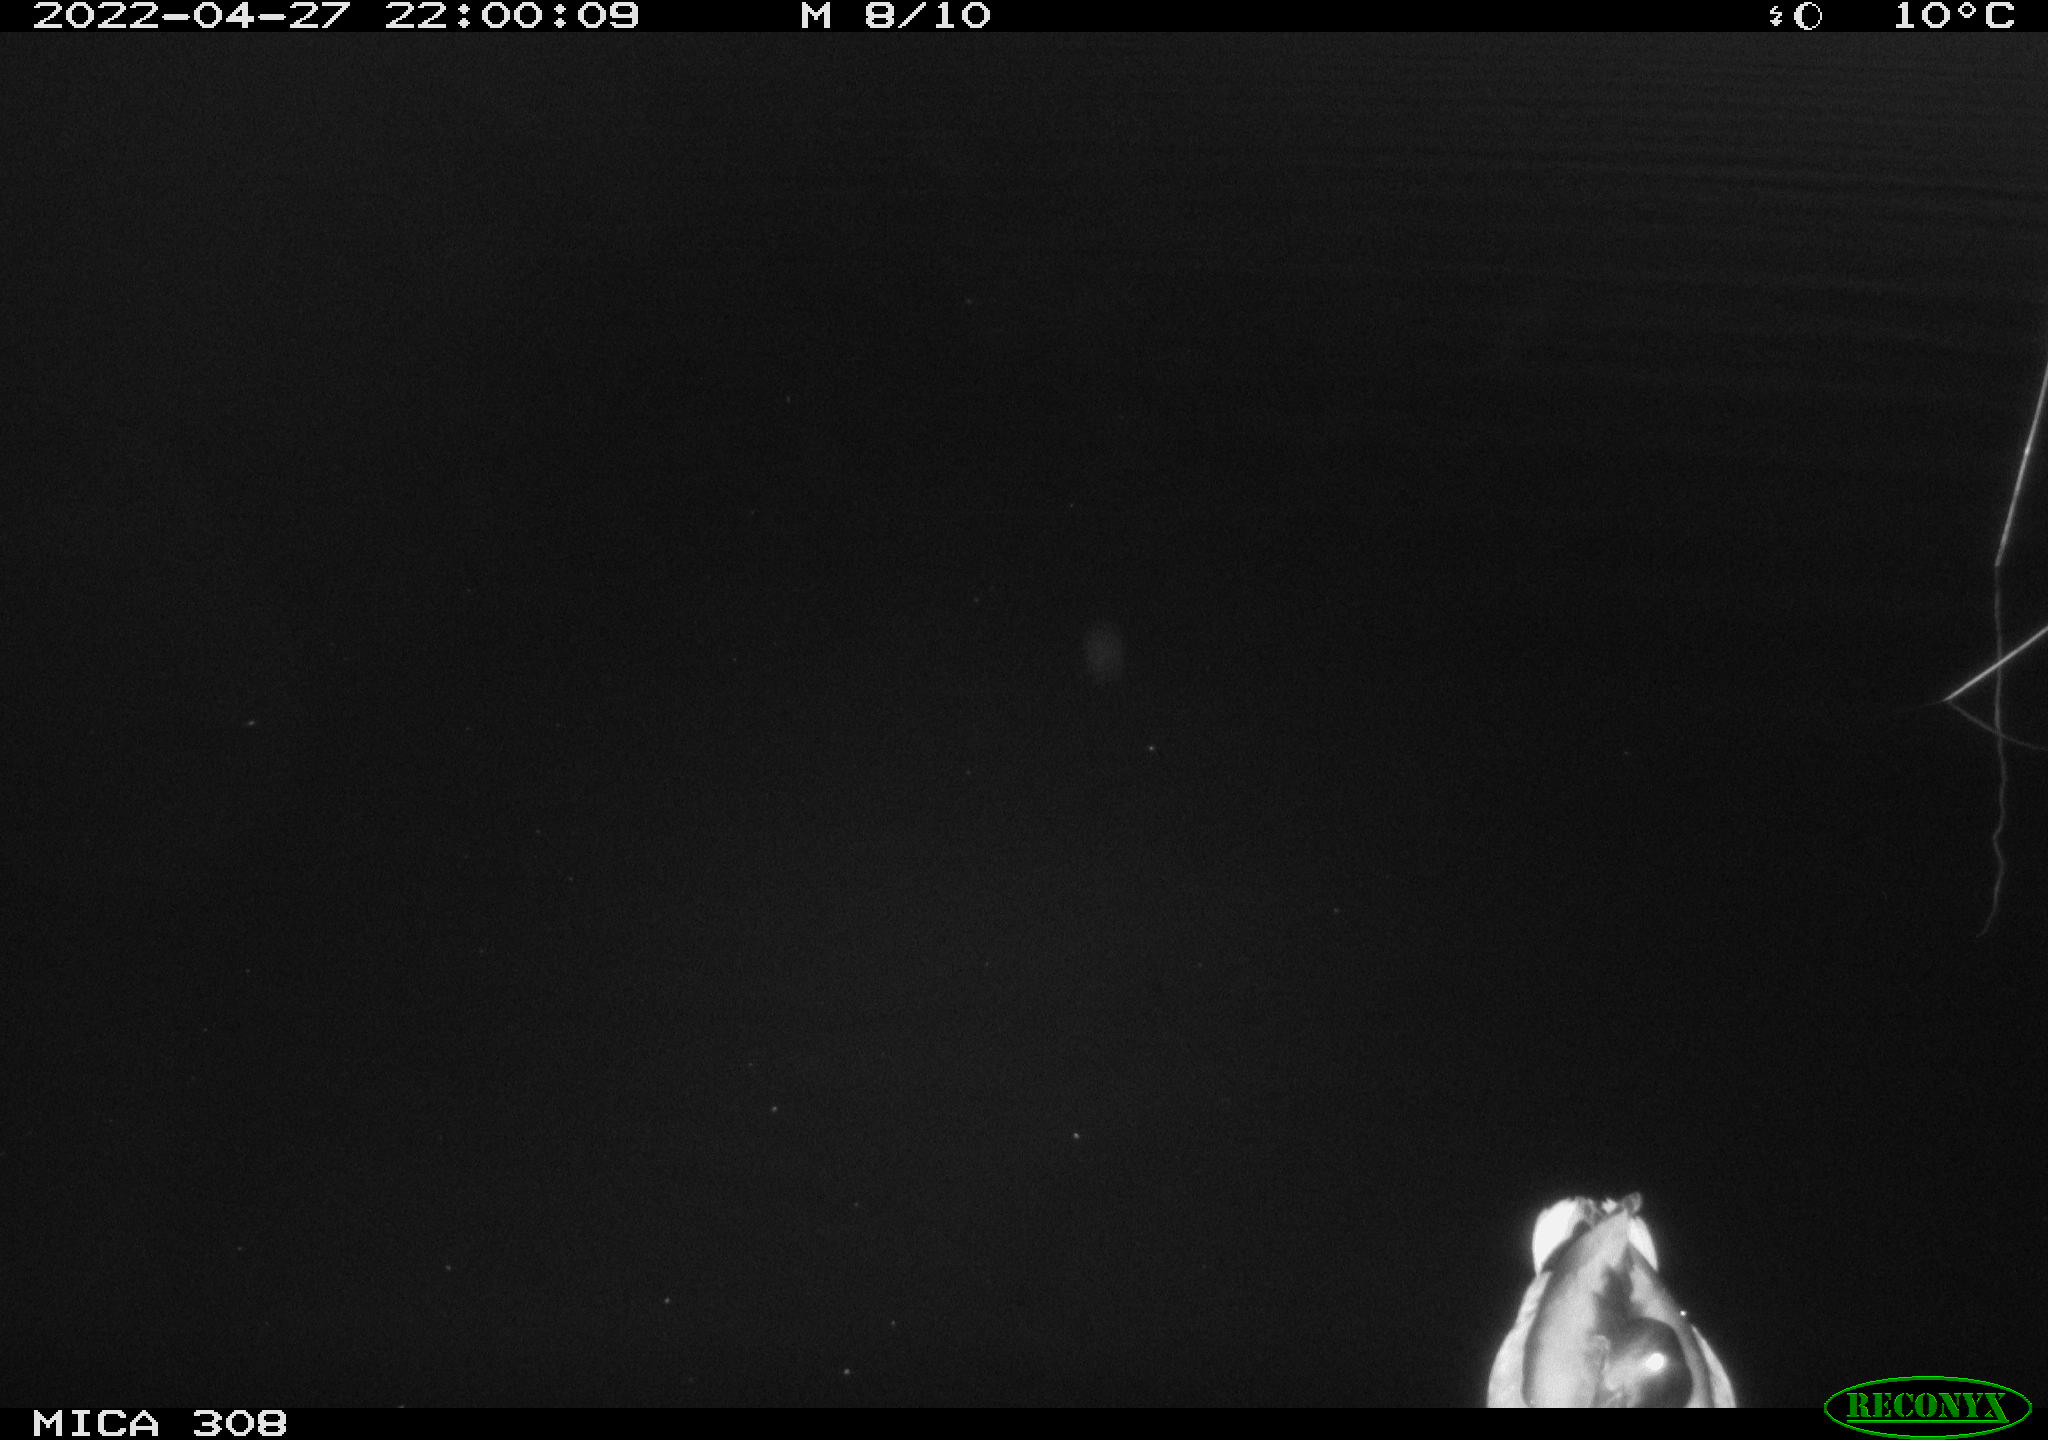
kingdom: Animalia
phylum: Chordata
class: Aves
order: Anseriformes
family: Anatidae
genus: Anas
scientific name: Anas platyrhynchos
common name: Mallard
